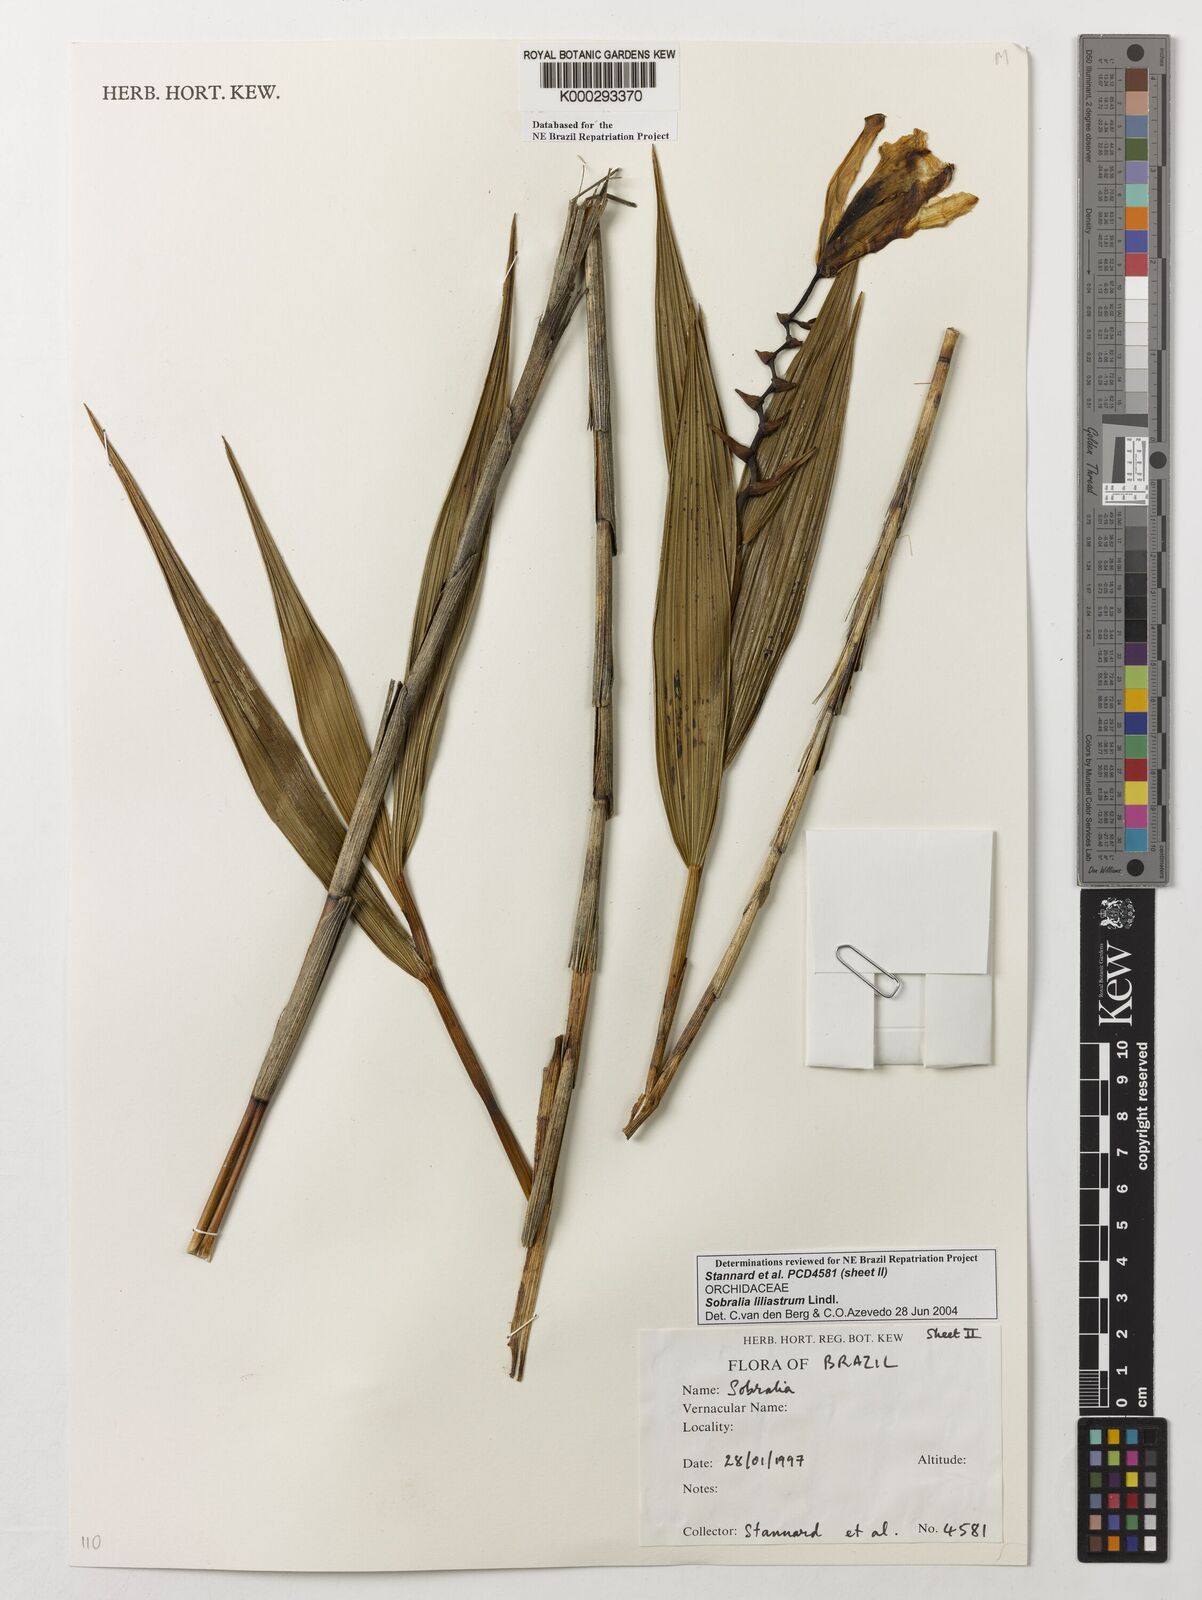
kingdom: Plantae
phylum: Tracheophyta
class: Liliopsida
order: Asparagales
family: Orchidaceae
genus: Sobralia
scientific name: Sobralia liliastrum
